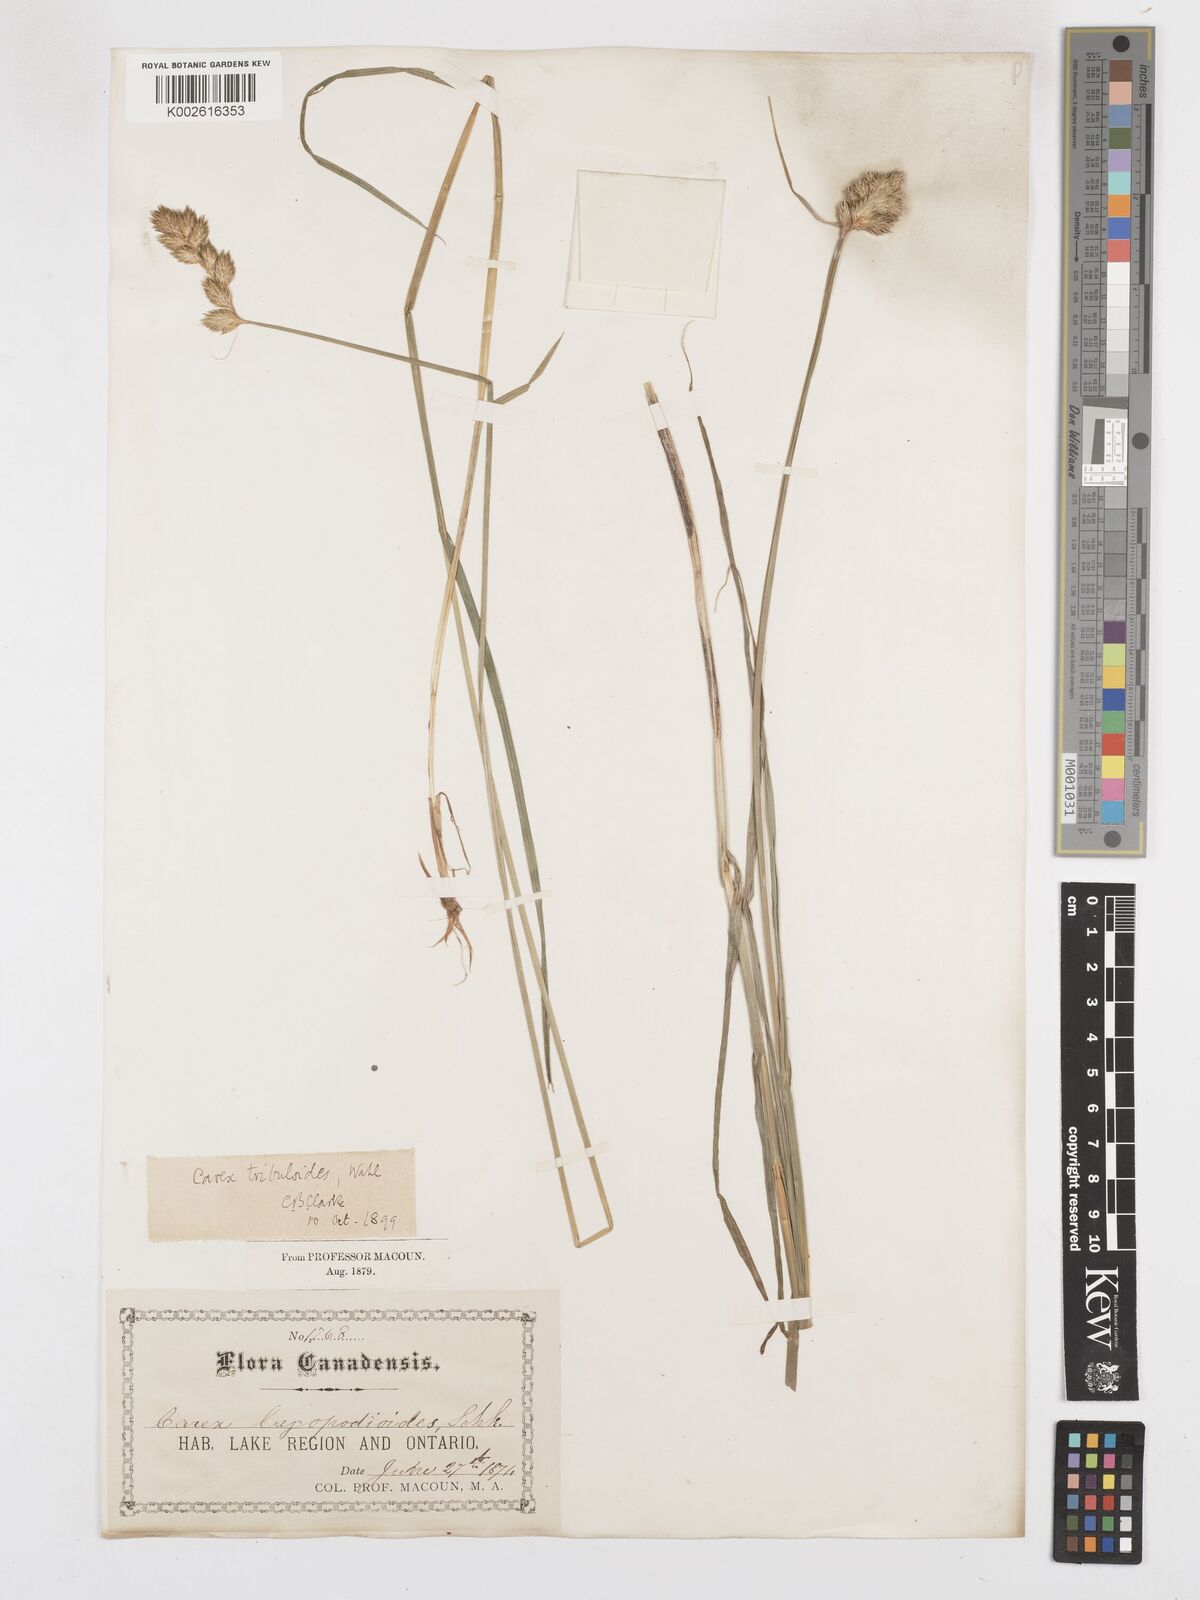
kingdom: Plantae
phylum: Tracheophyta
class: Liliopsida
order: Poales
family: Cyperaceae
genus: Carex
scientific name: Carex tribuloides
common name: Blunt broom sedge
